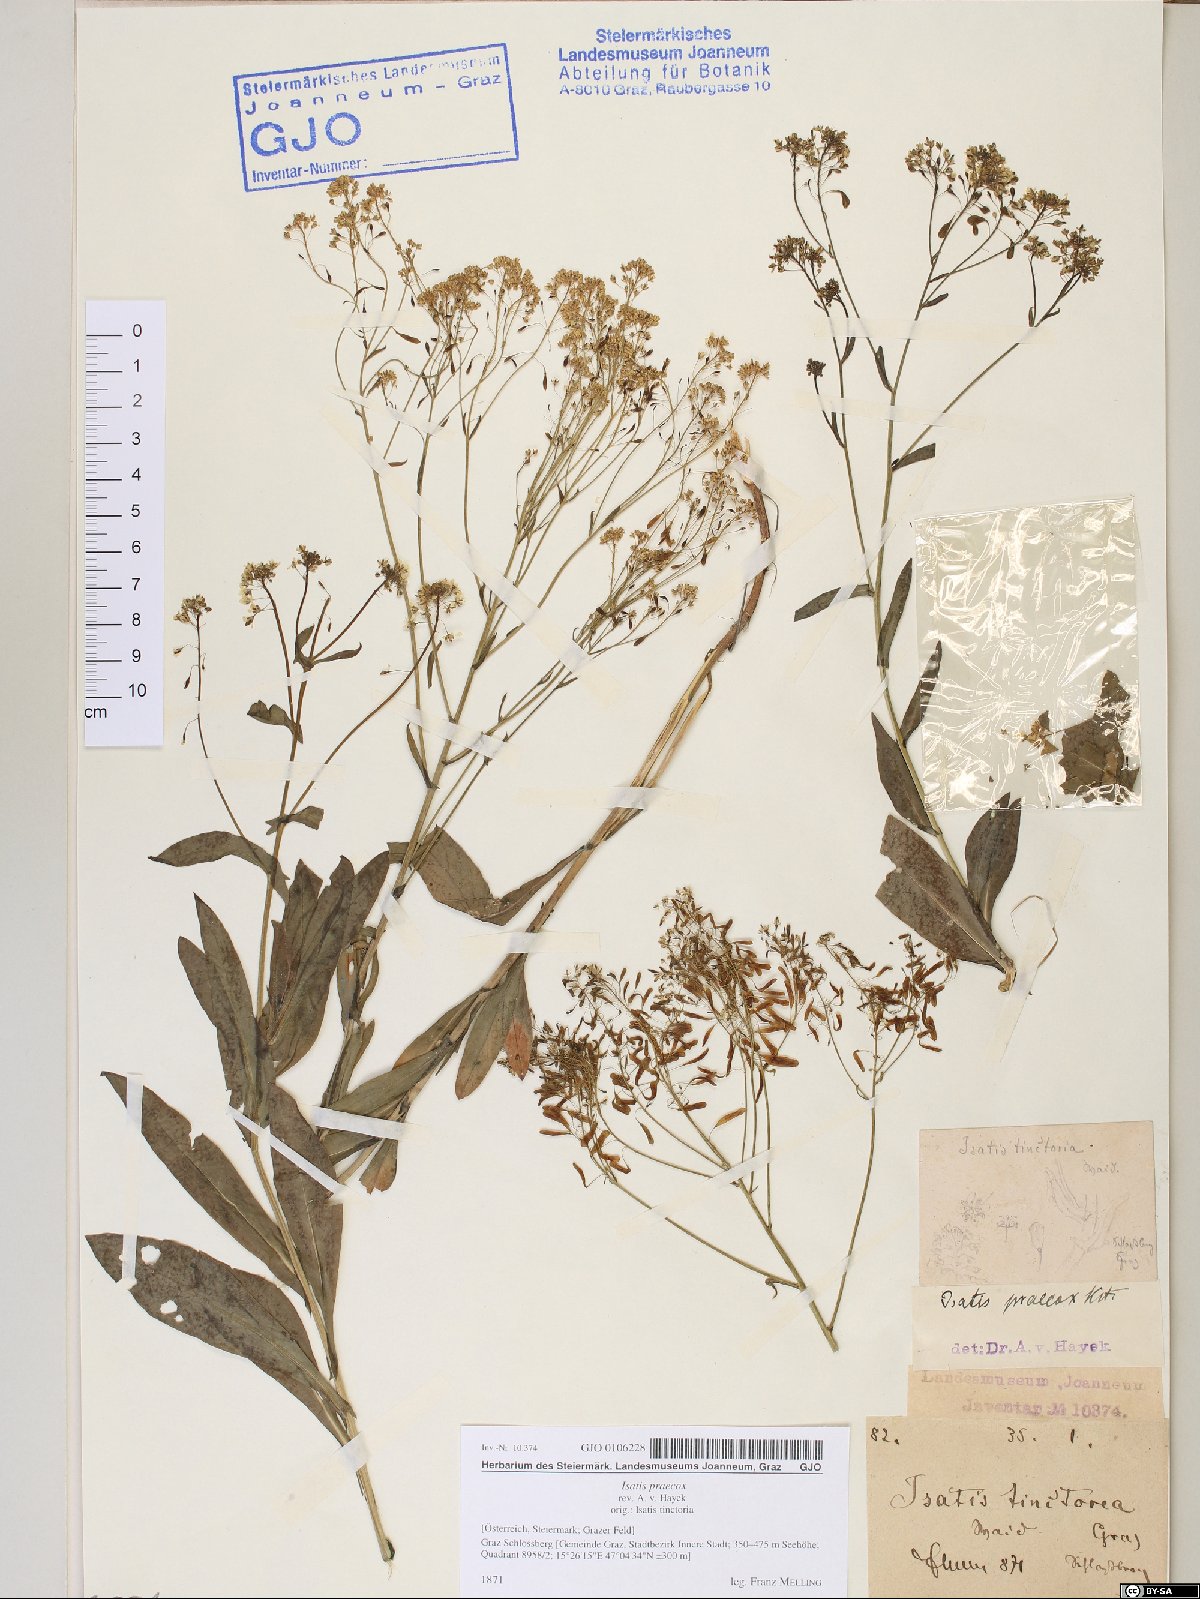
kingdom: Plantae
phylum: Tracheophyta
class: Magnoliopsida
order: Brassicales
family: Brassicaceae
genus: Isatis
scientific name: Isatis tinctoria
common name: Woad
